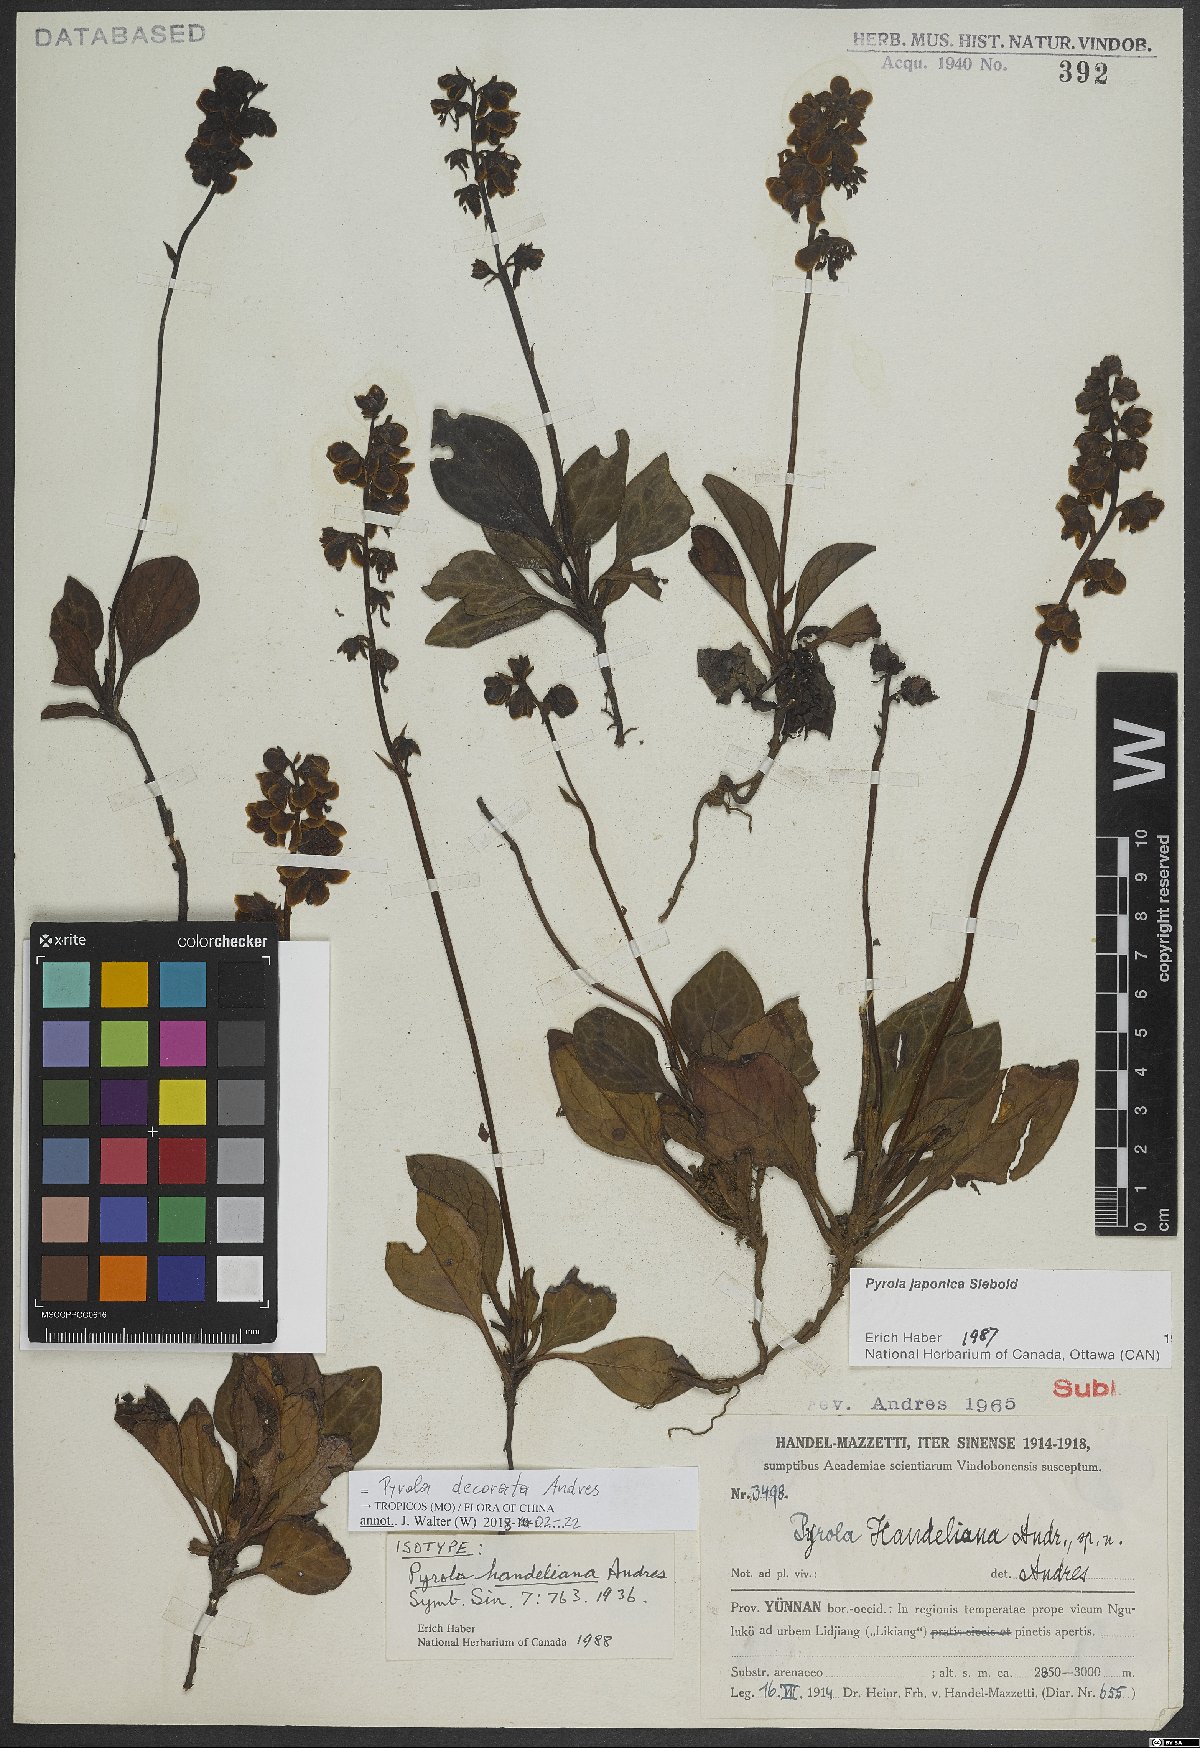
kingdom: Plantae
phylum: Tracheophyta
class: Magnoliopsida
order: Ericales
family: Ericaceae
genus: Pyrola
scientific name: Pyrola decorata
